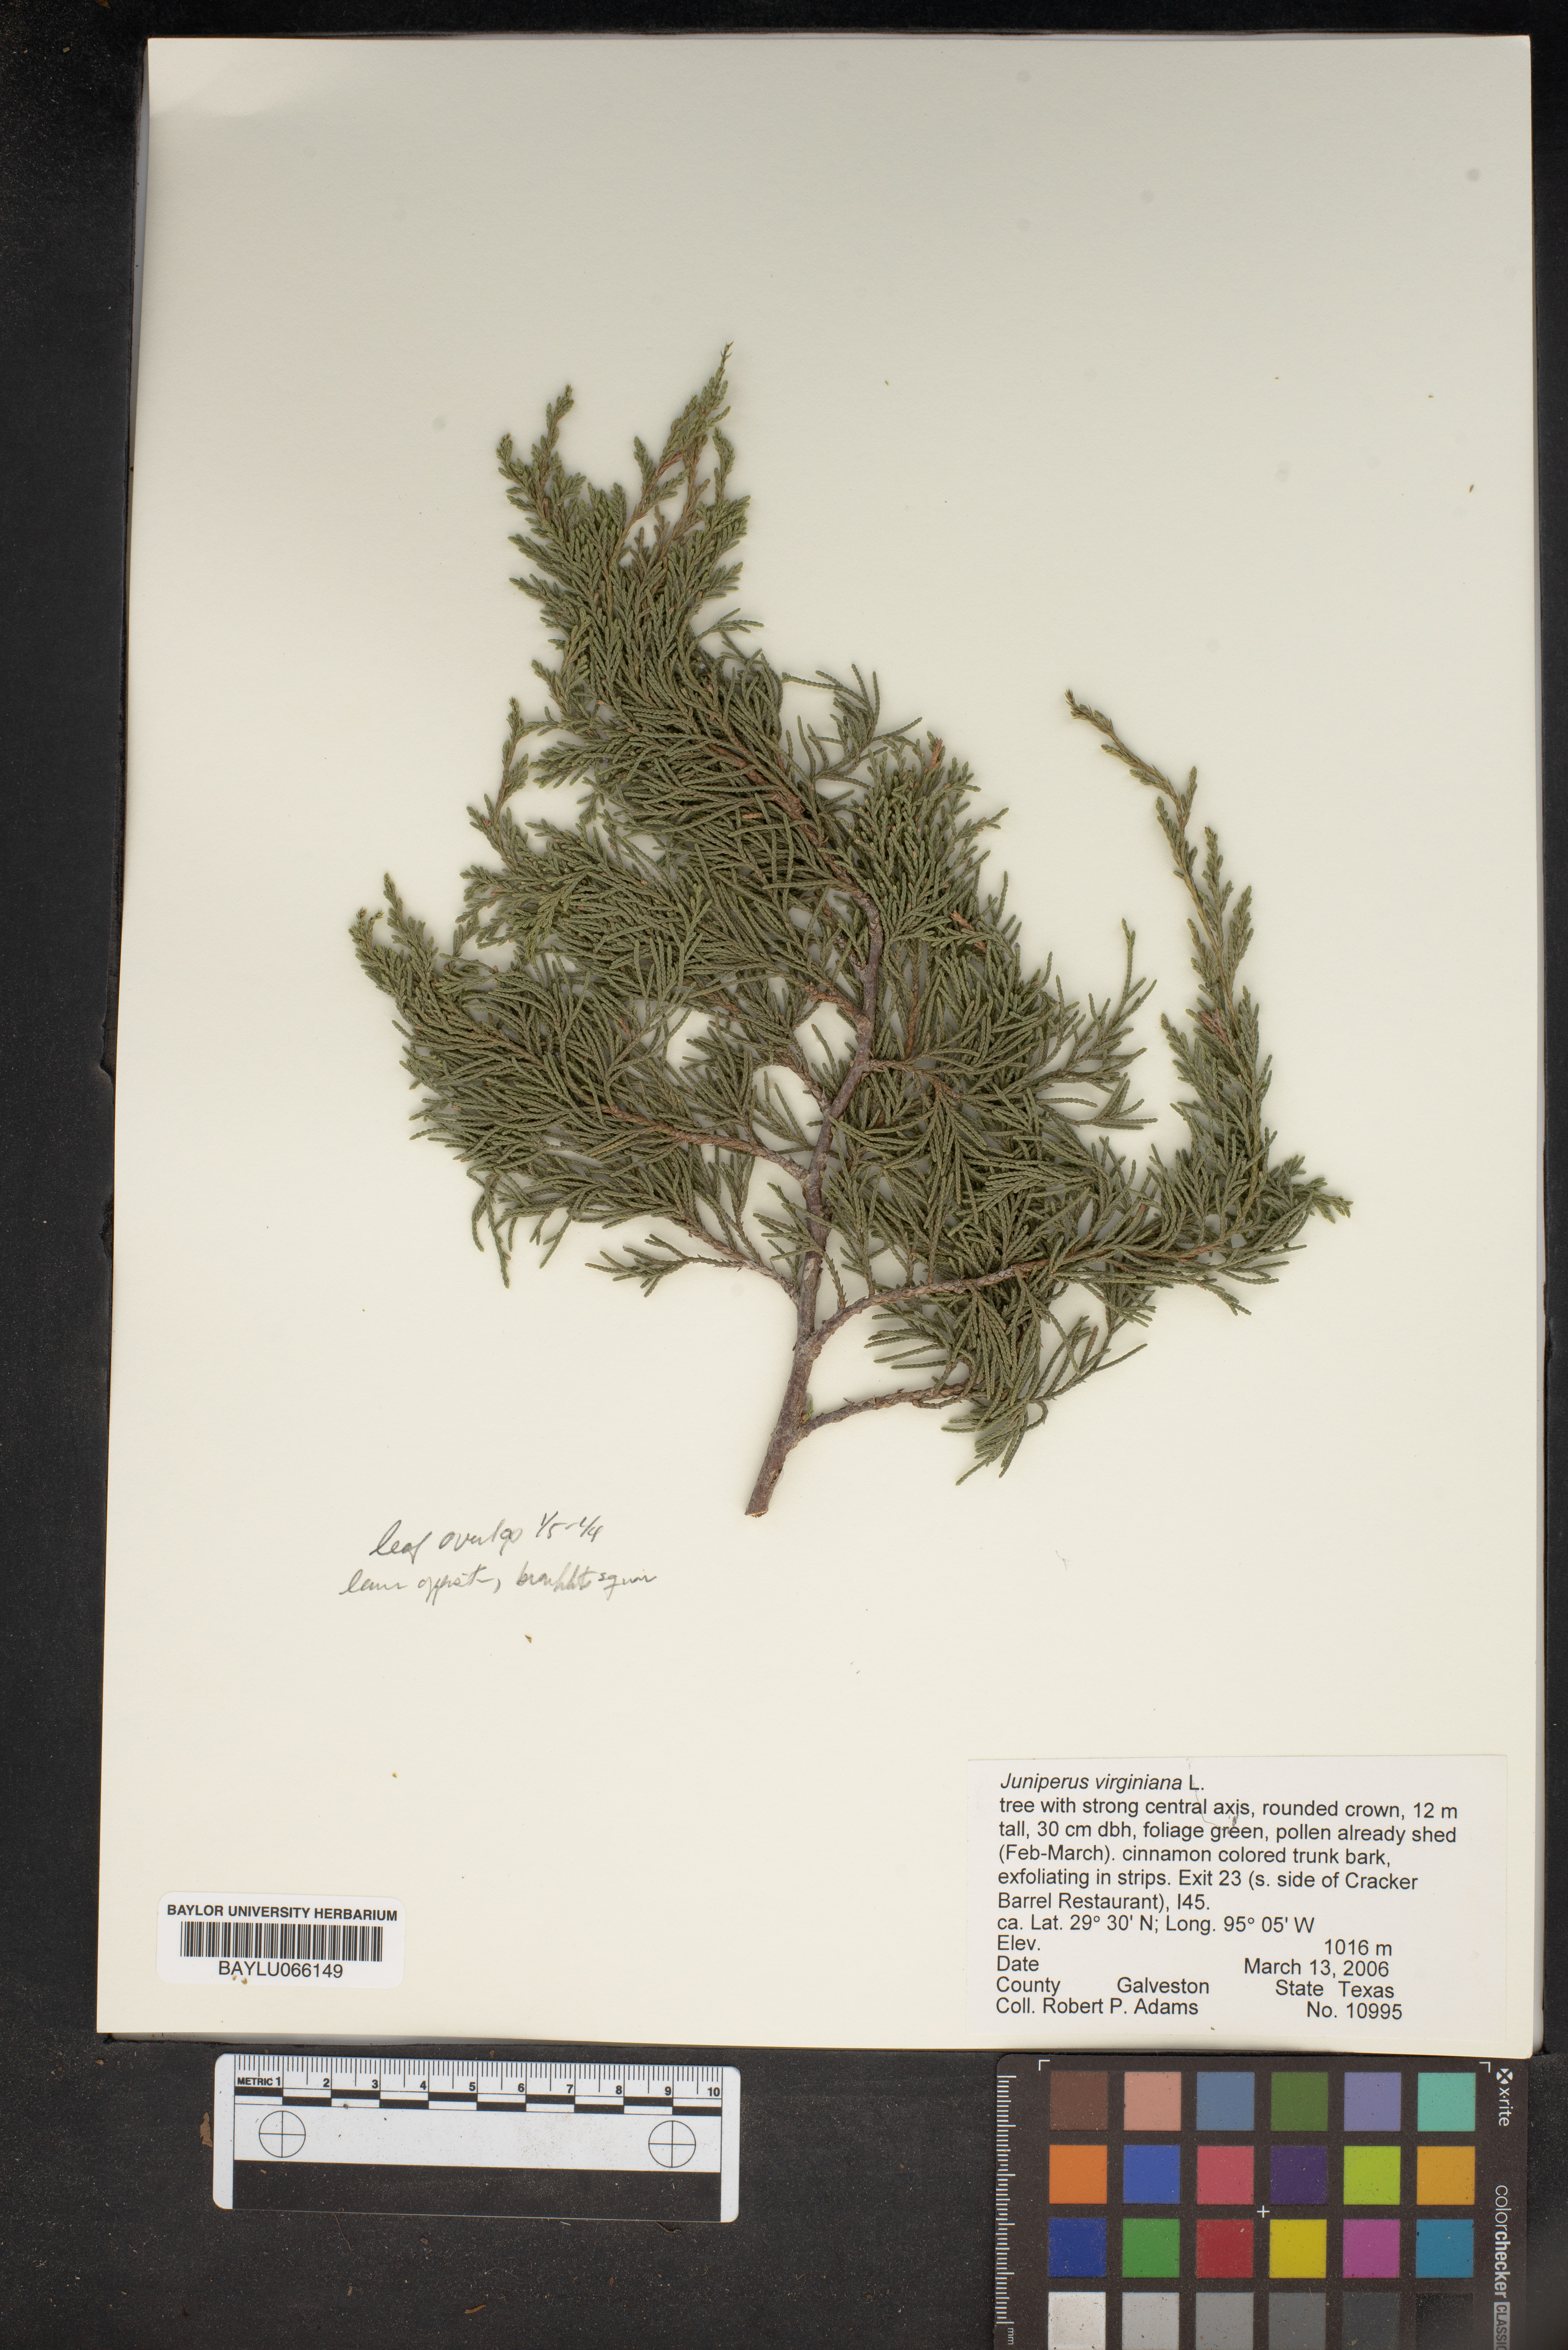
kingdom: Plantae
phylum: Tracheophyta
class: Pinopsida
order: Pinales
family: Cupressaceae
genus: Juniperus
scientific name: Juniperus virginiana
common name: Red juniper
